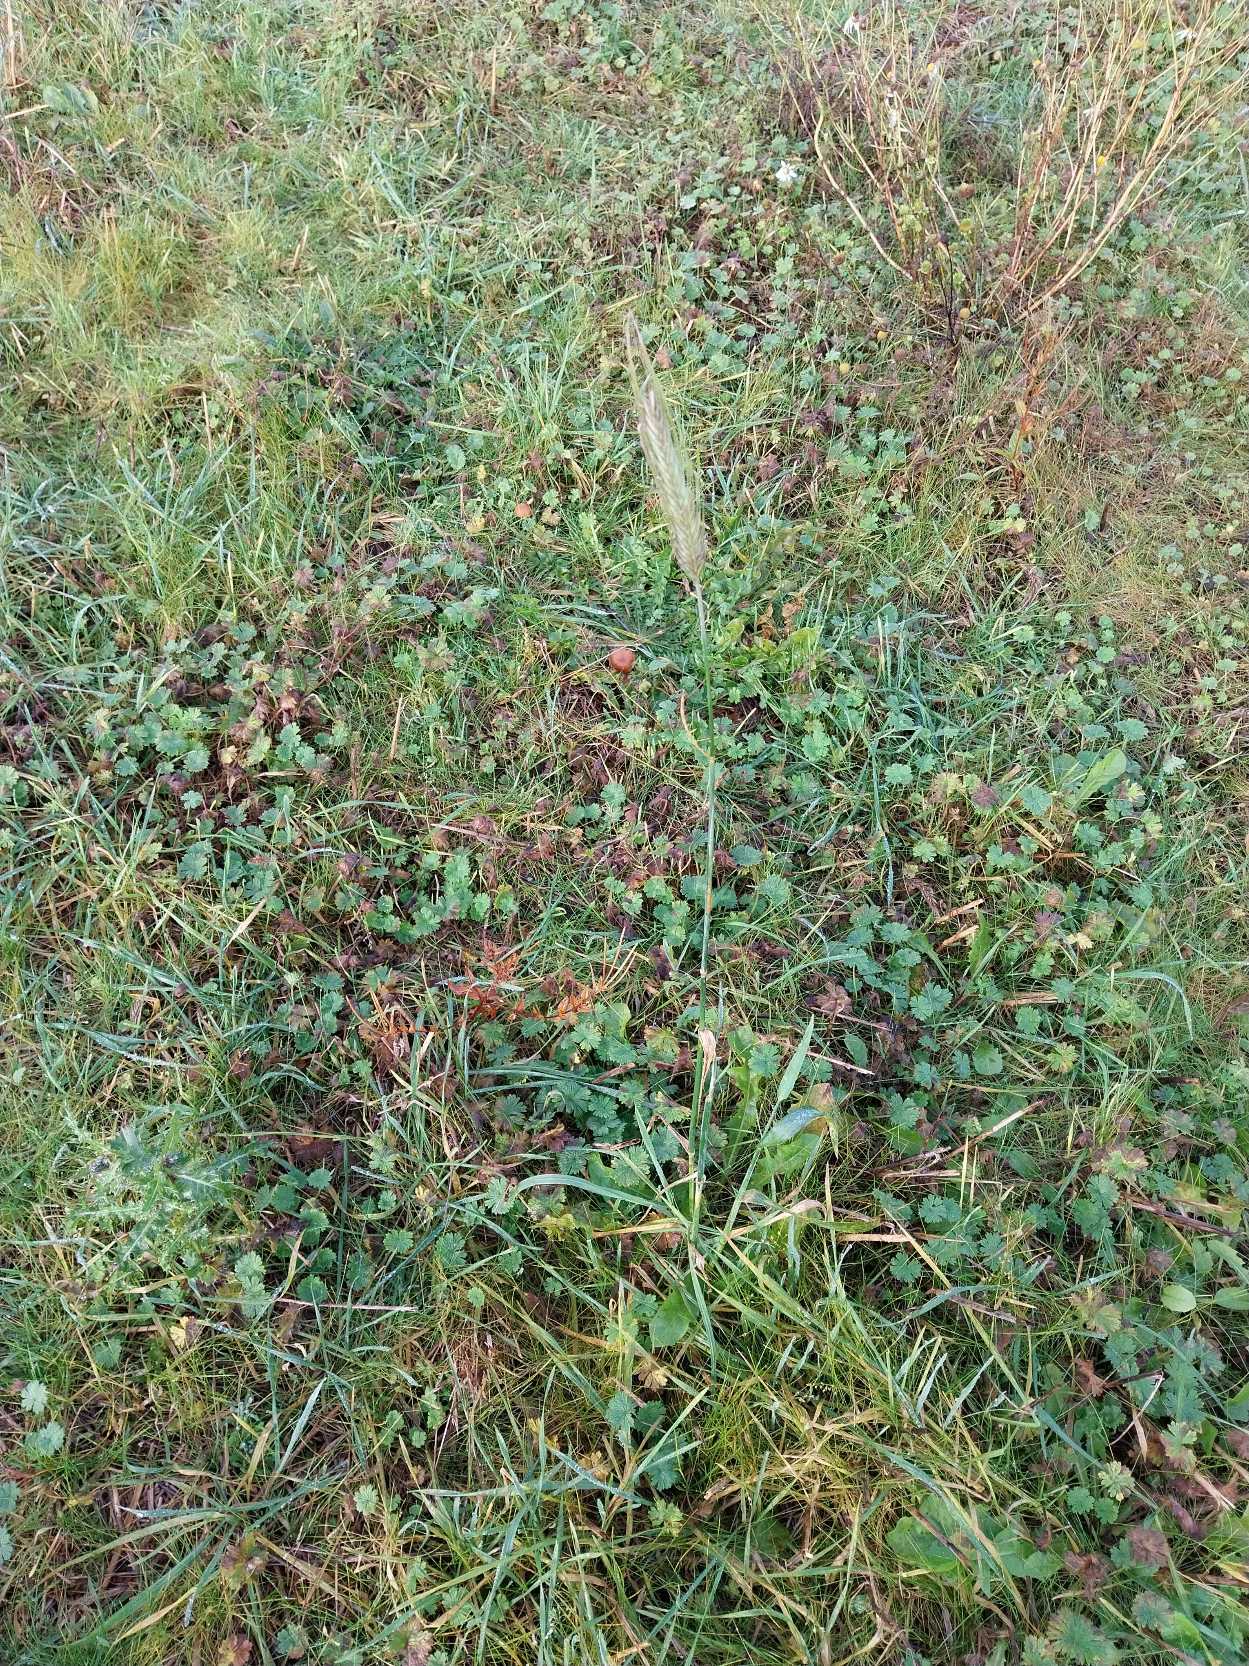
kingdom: Plantae
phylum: Tracheophyta
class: Liliopsida
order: Poales
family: Poaceae
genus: Secale
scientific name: Secale cereale
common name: Almindelig rug
